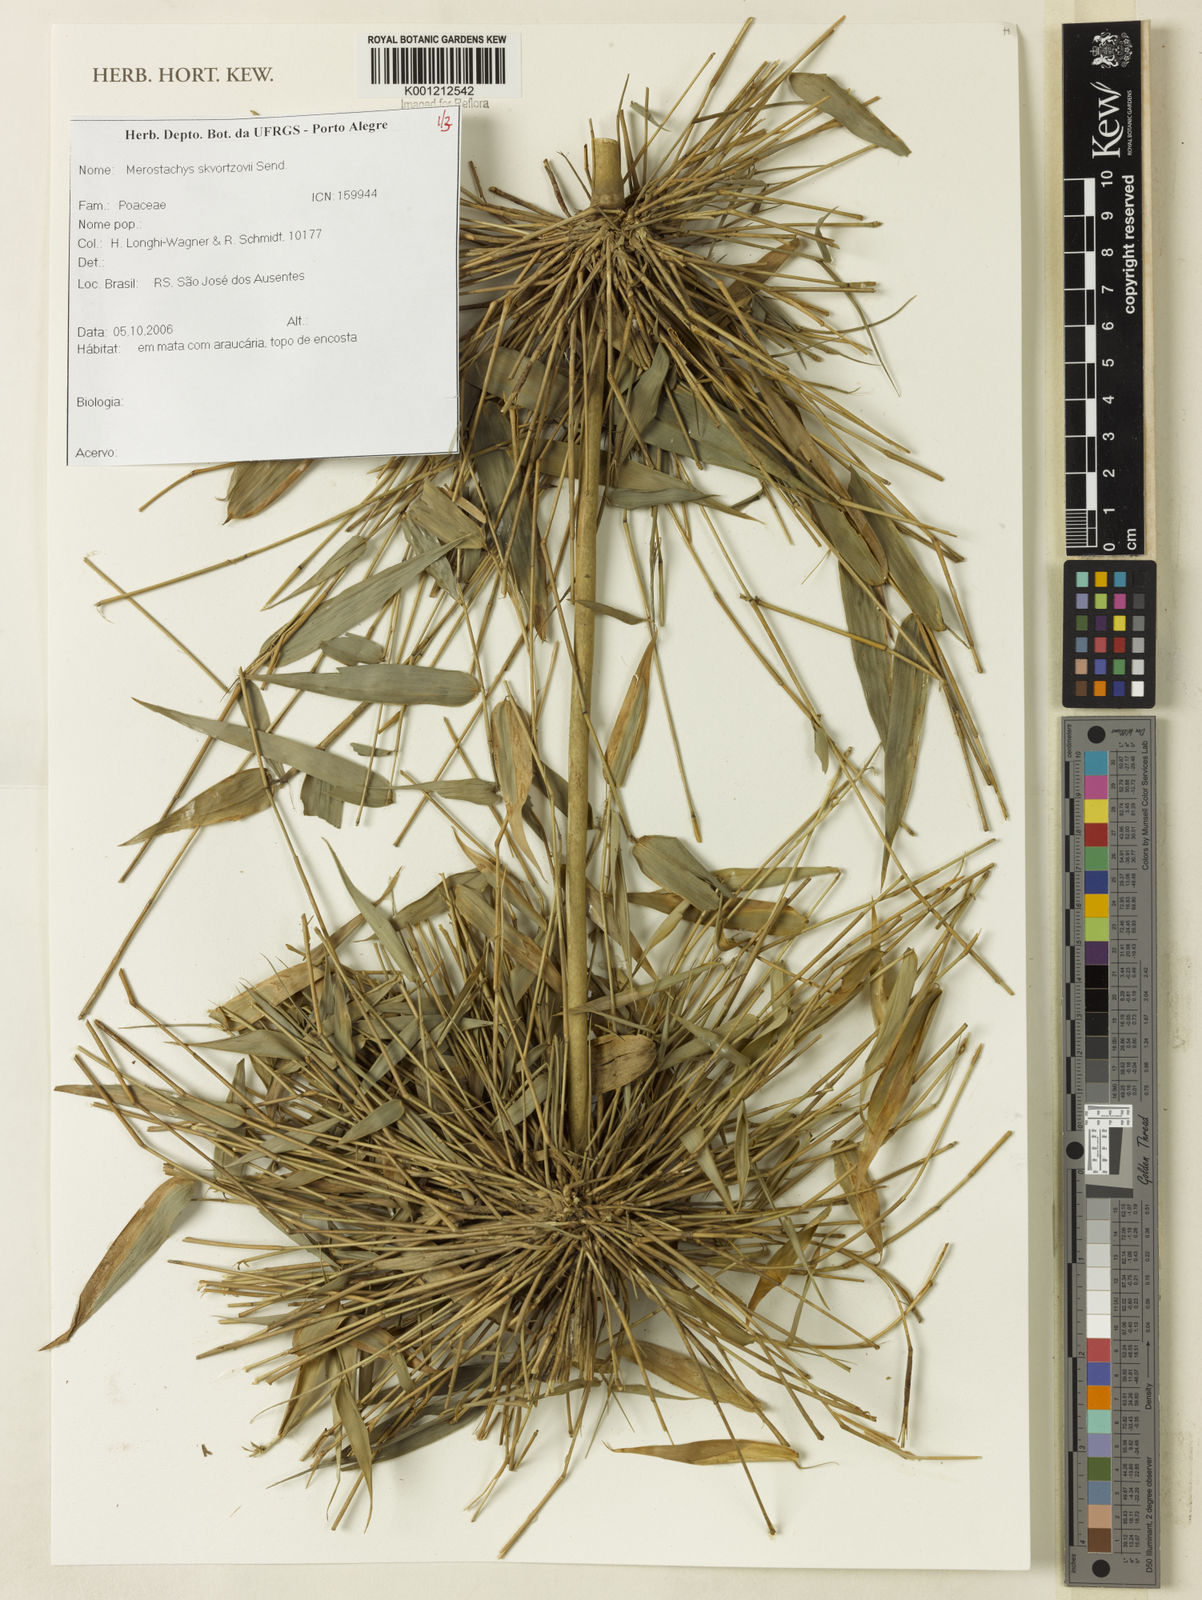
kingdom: Plantae
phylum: Tracheophyta
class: Liliopsida
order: Poales
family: Poaceae
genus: Merostachys
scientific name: Merostachys skvortzovii
